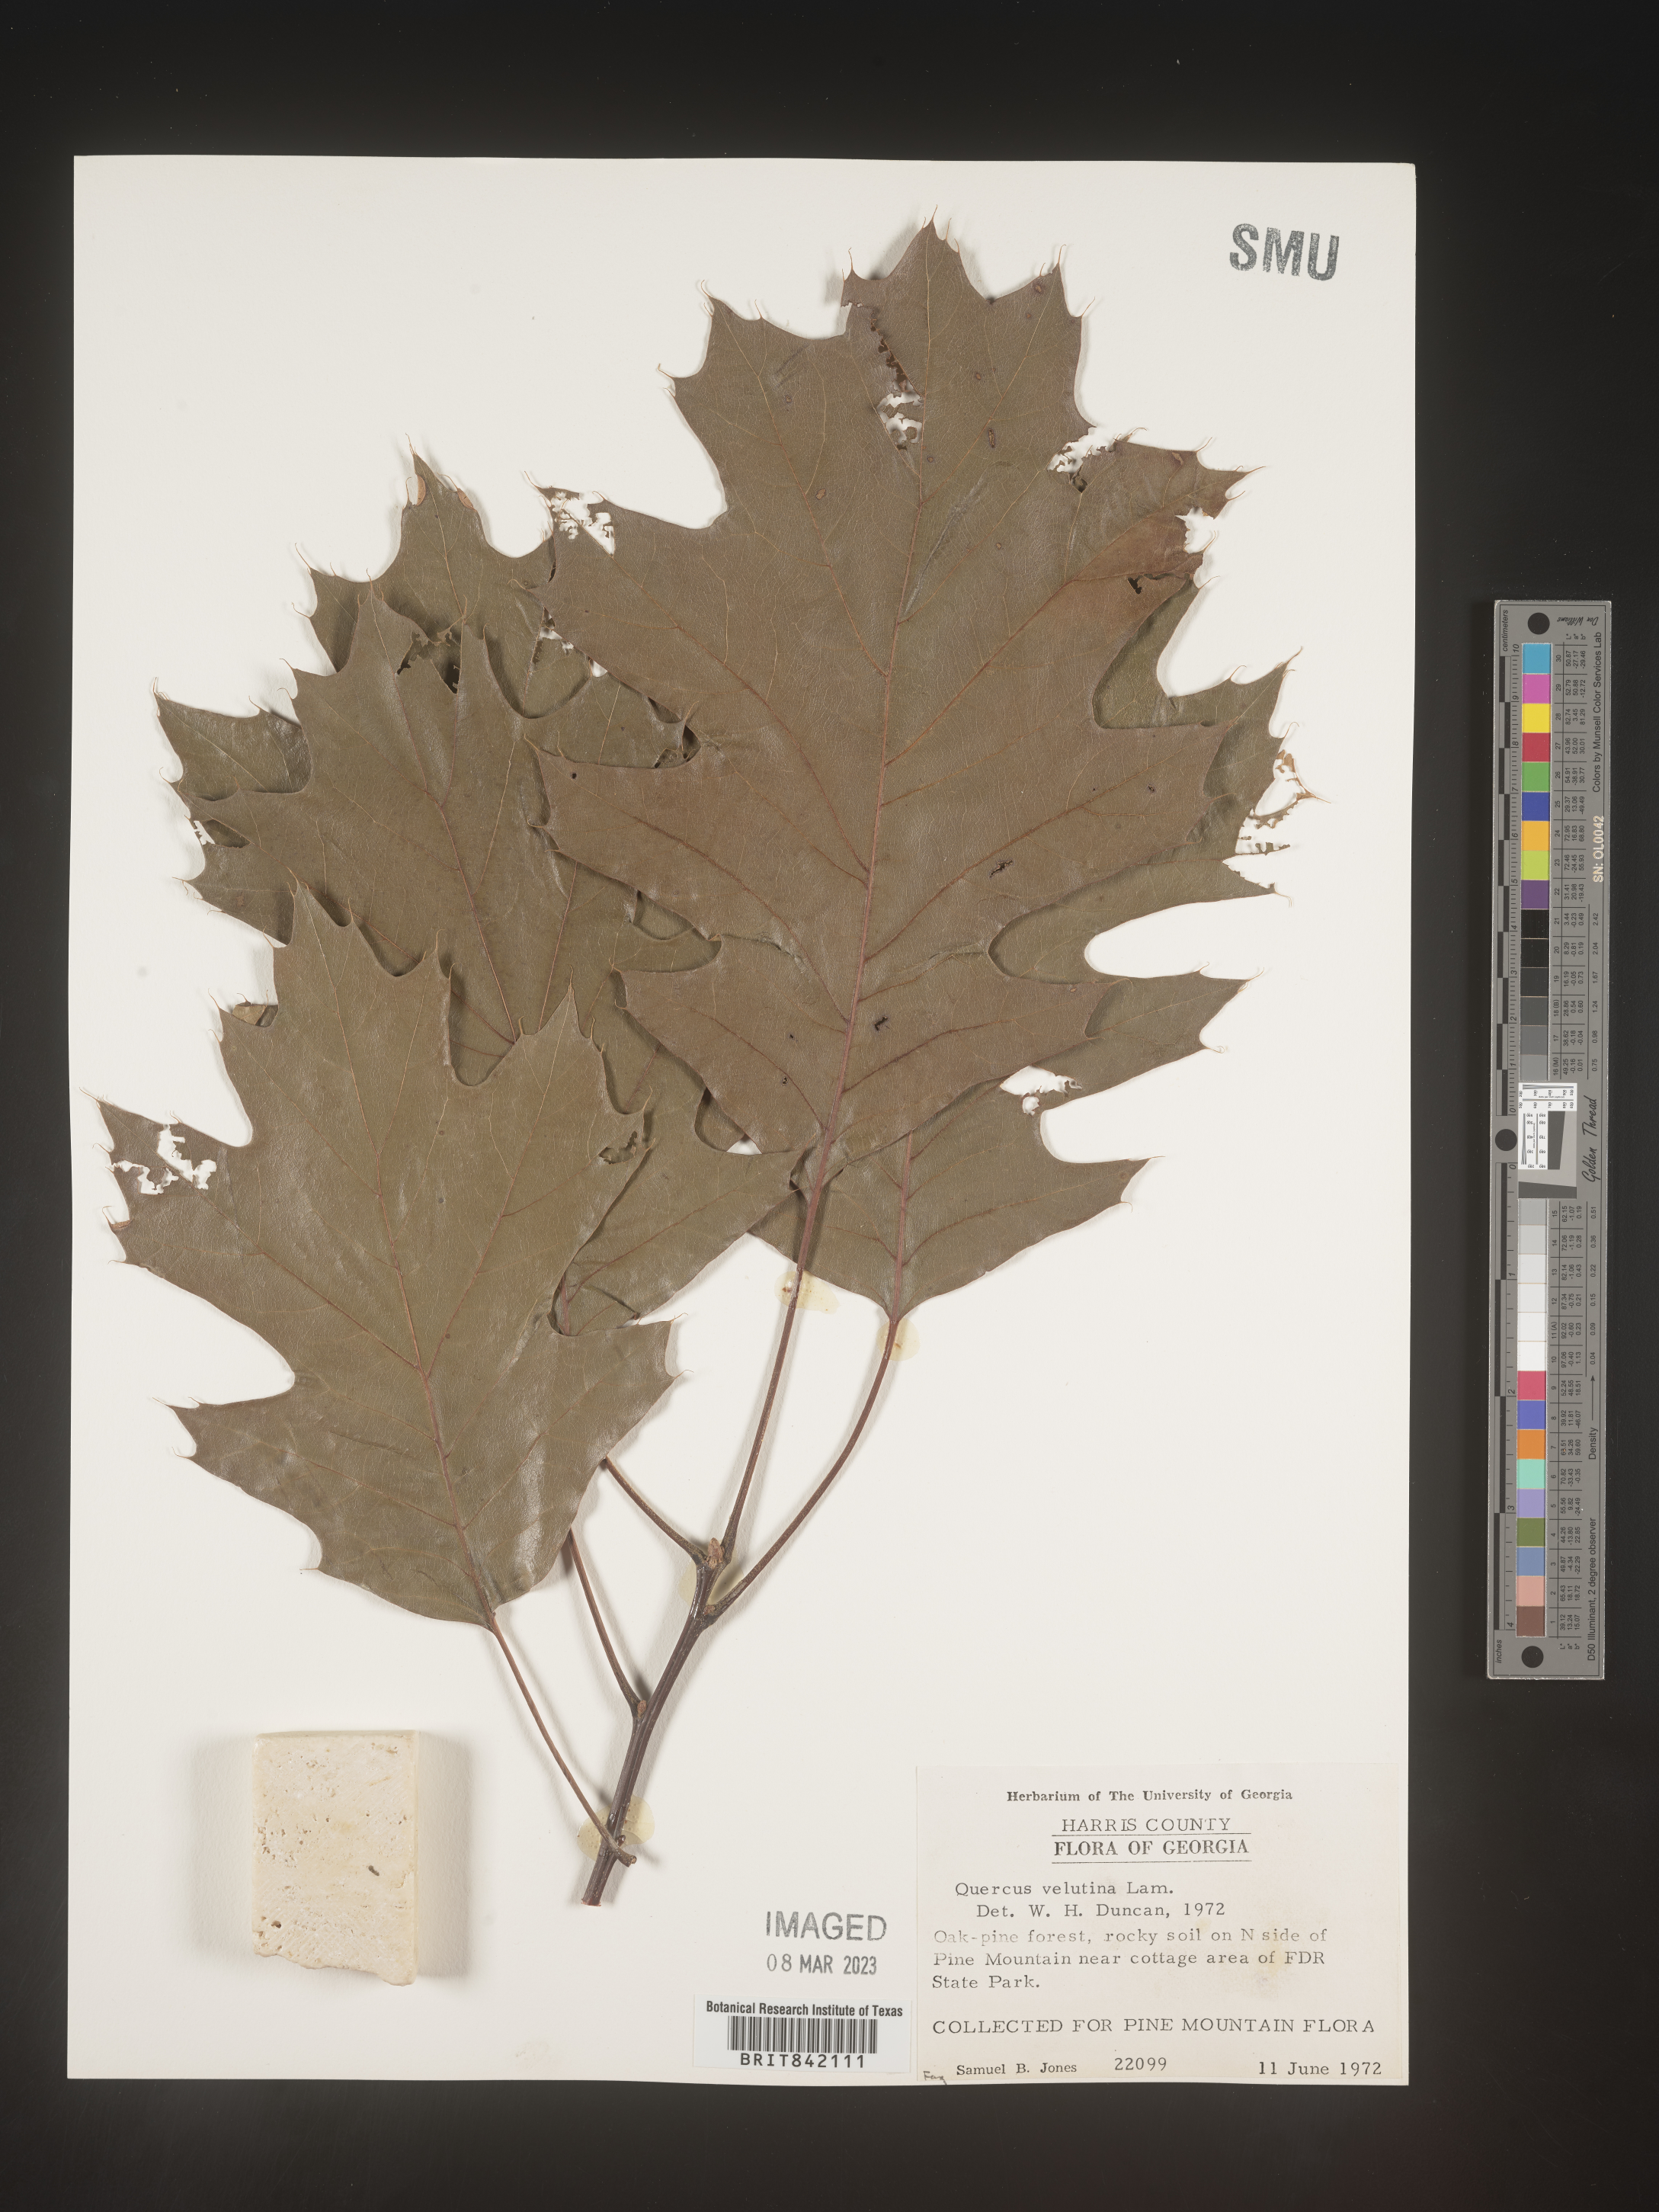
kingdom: Plantae
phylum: Tracheophyta
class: Magnoliopsida
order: Fagales
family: Fagaceae
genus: Quercus
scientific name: Quercus velutina
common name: Black oak
